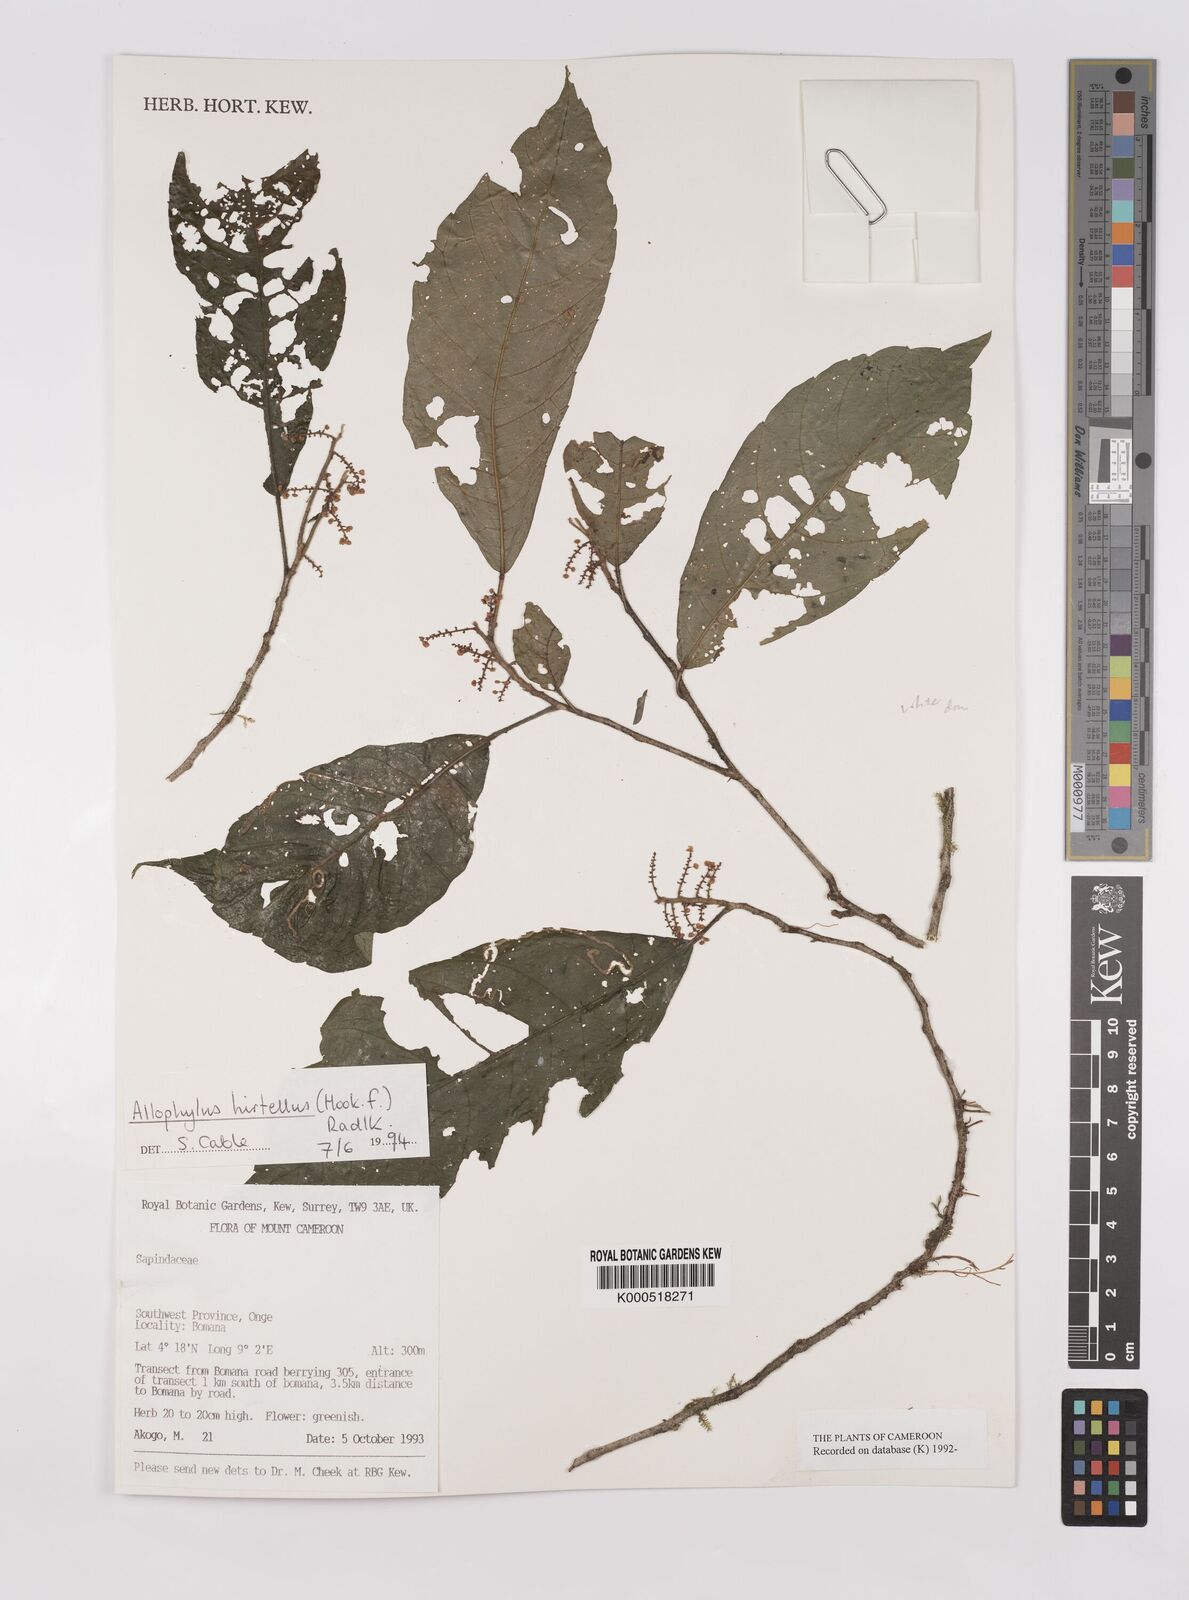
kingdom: Plantae
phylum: Tracheophyta
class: Magnoliopsida
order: Sapindales
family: Sapindaceae
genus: Allophylus
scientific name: Allophylus hirtellus
